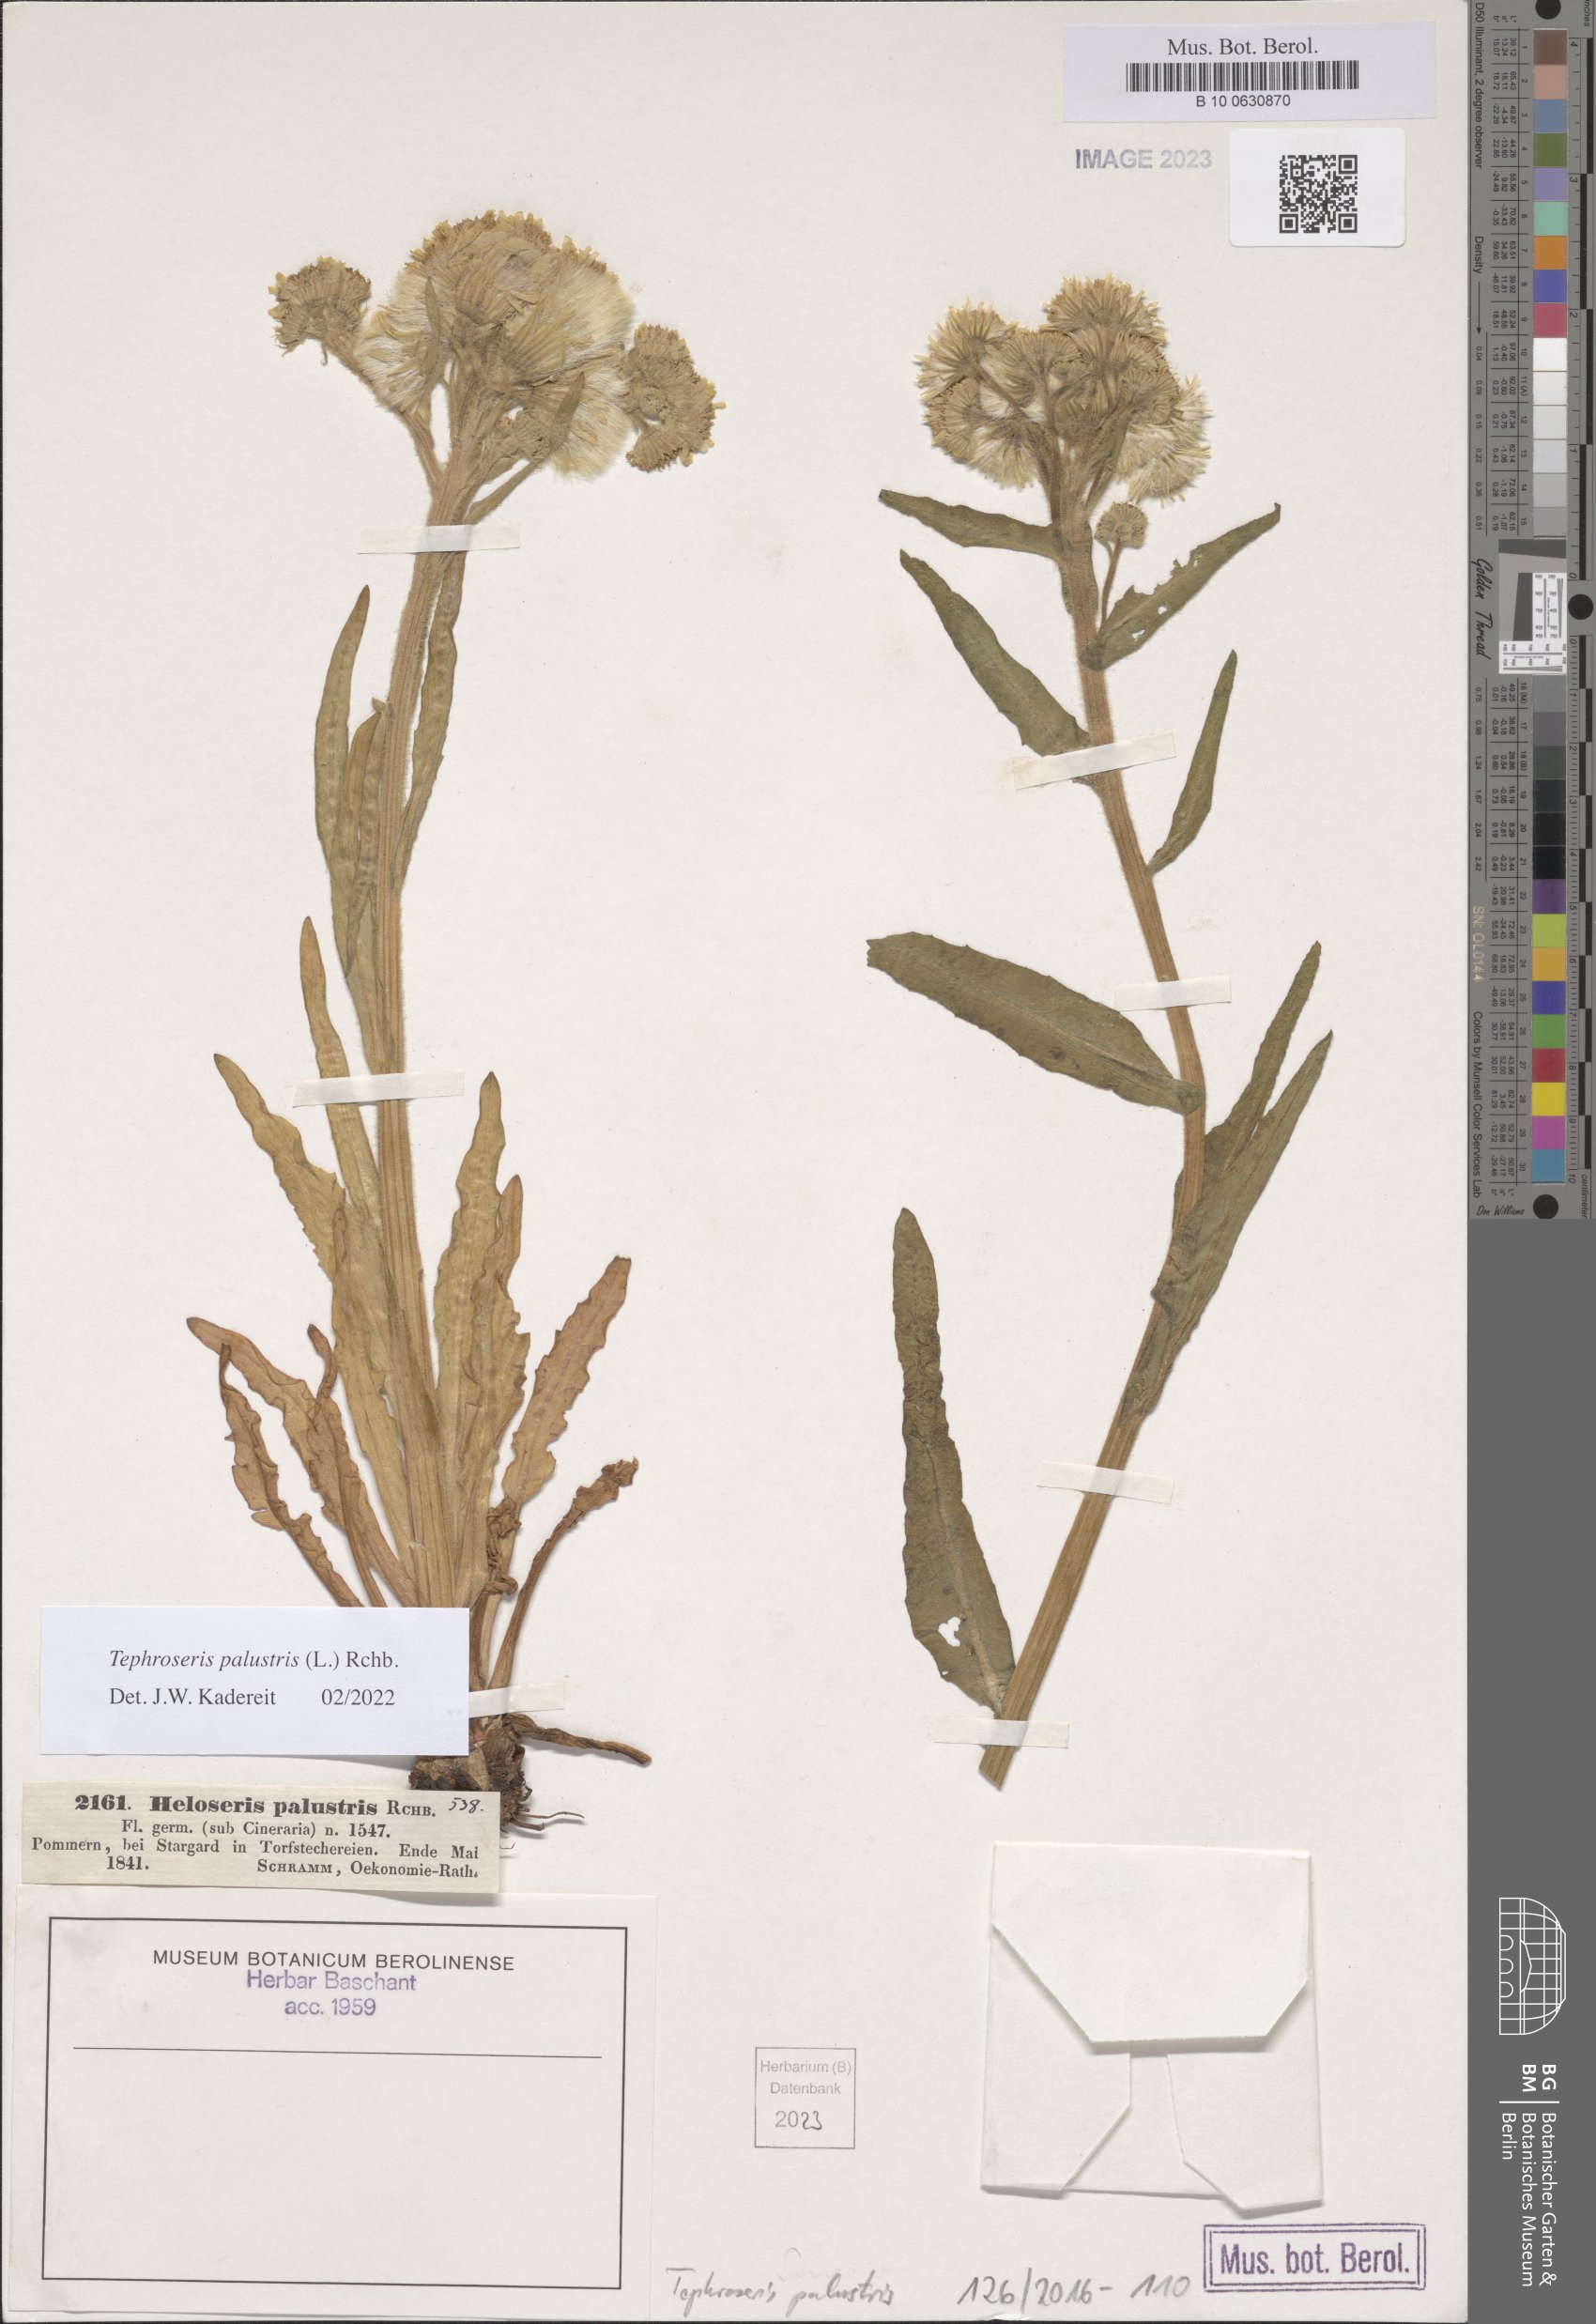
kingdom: Plantae
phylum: Tracheophyta
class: Magnoliopsida
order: Asterales
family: Asteraceae
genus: Tephroseris
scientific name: Tephroseris palustris
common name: Marsh fleawort
